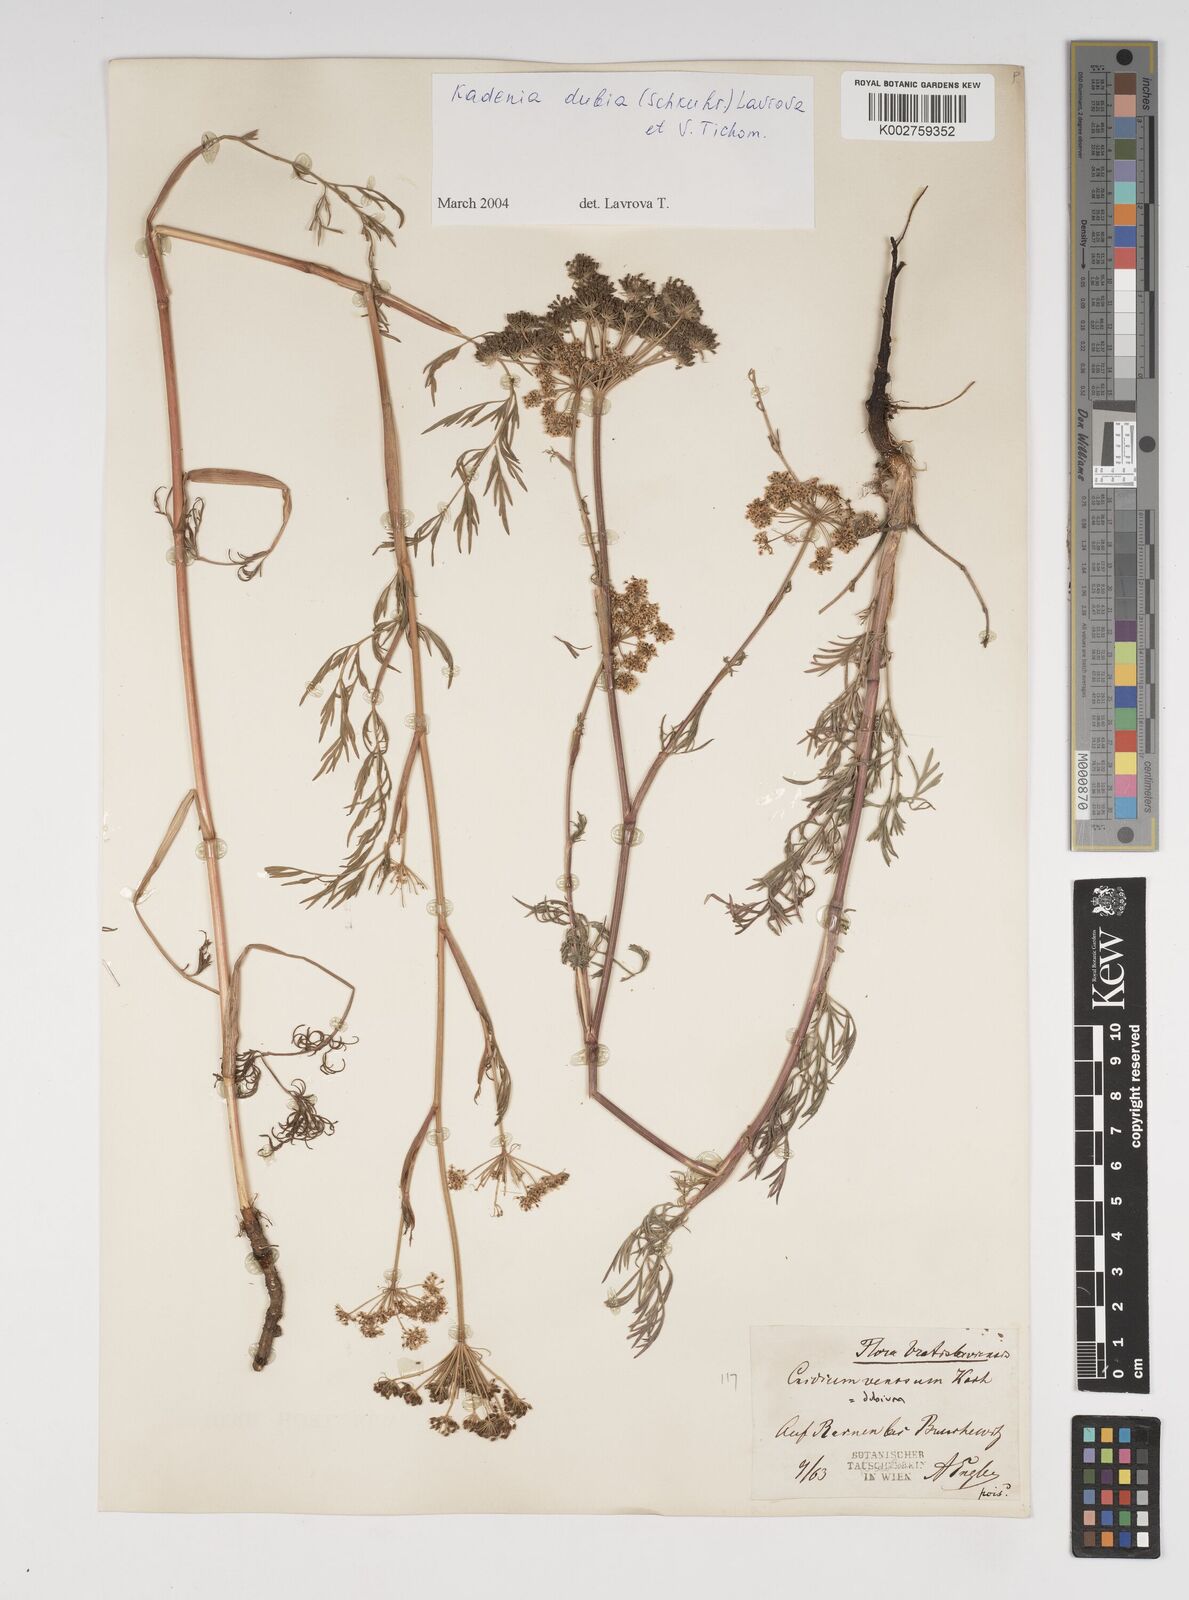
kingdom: Plantae
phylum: Tracheophyta
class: Magnoliopsida
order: Apiales
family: Apiaceae
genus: Kadenia
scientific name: Kadenia dubia
